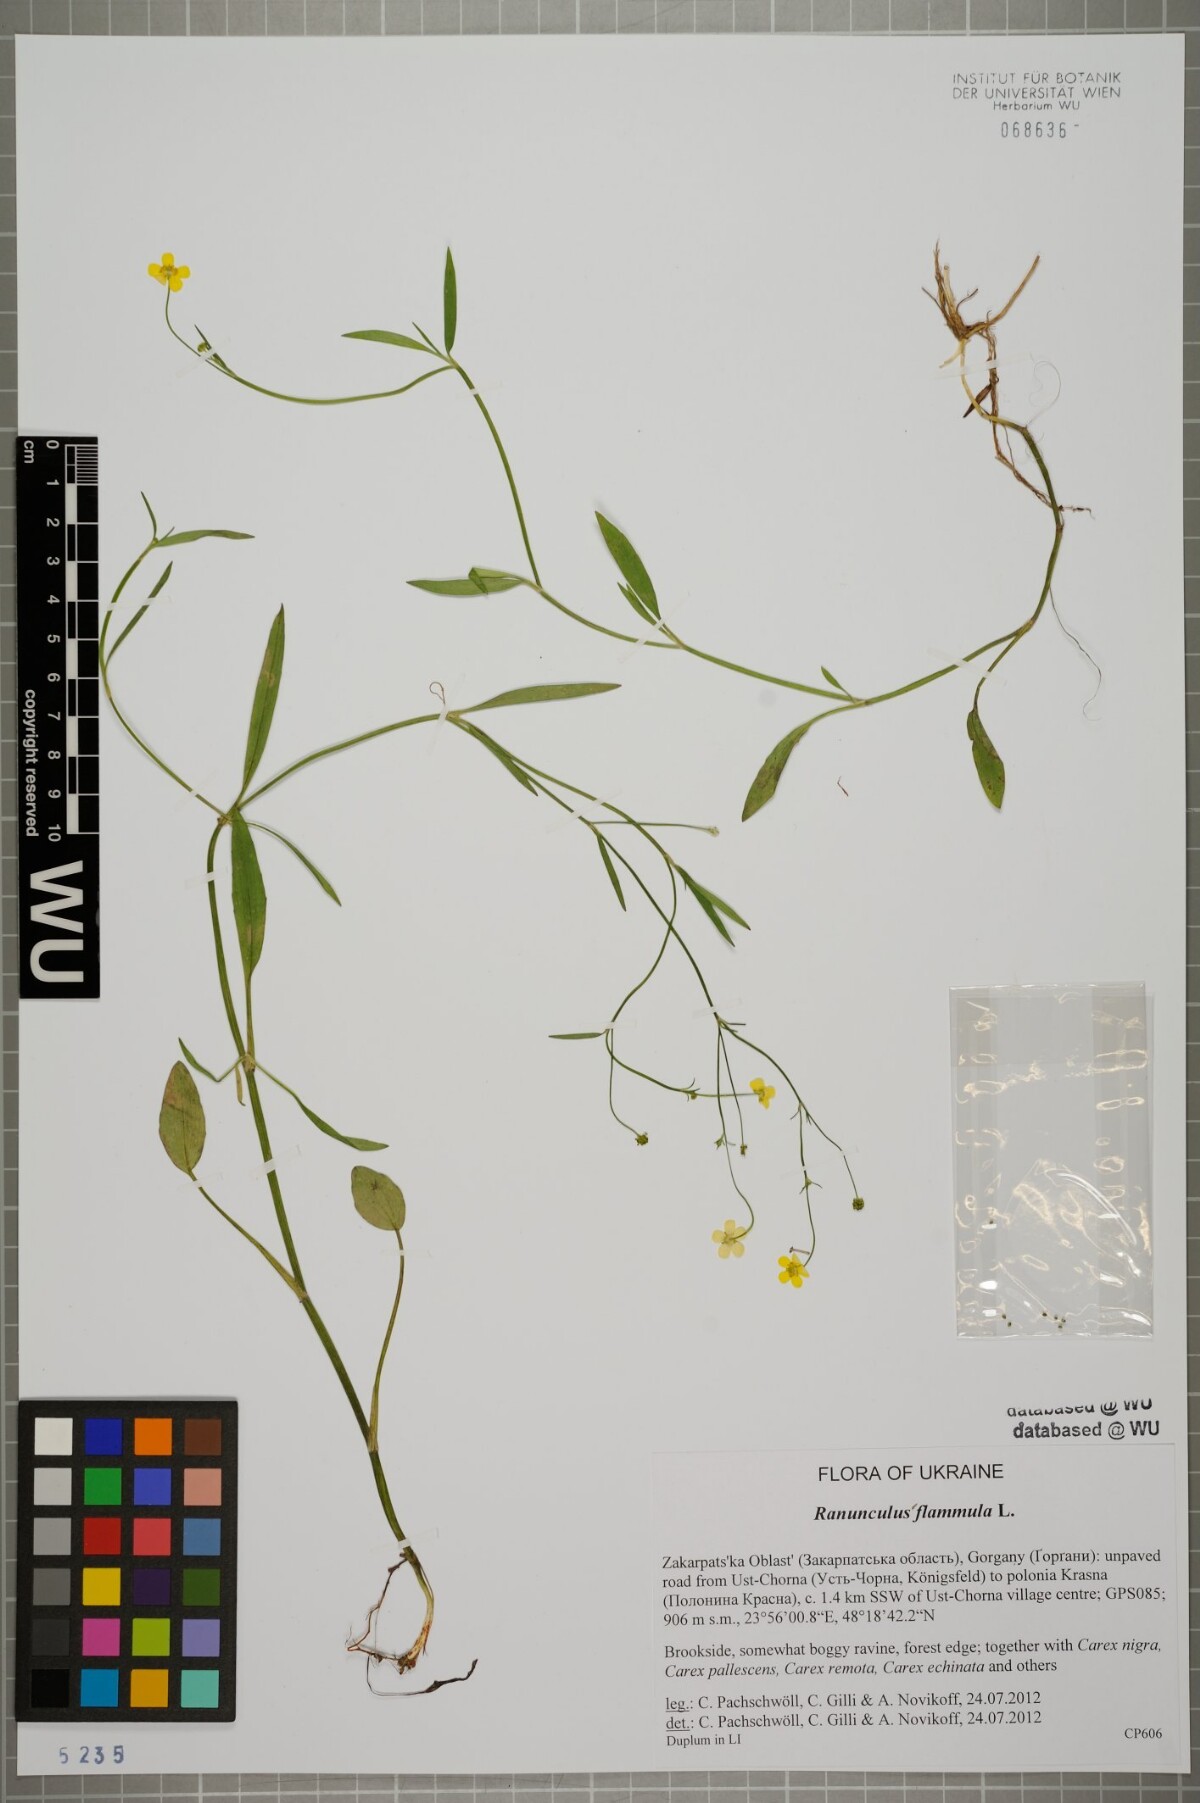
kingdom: Plantae
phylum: Tracheophyta
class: Magnoliopsida
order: Ranunculales
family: Ranunculaceae
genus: Ranunculus
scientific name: Ranunculus flammula
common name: Lesser spearwort
